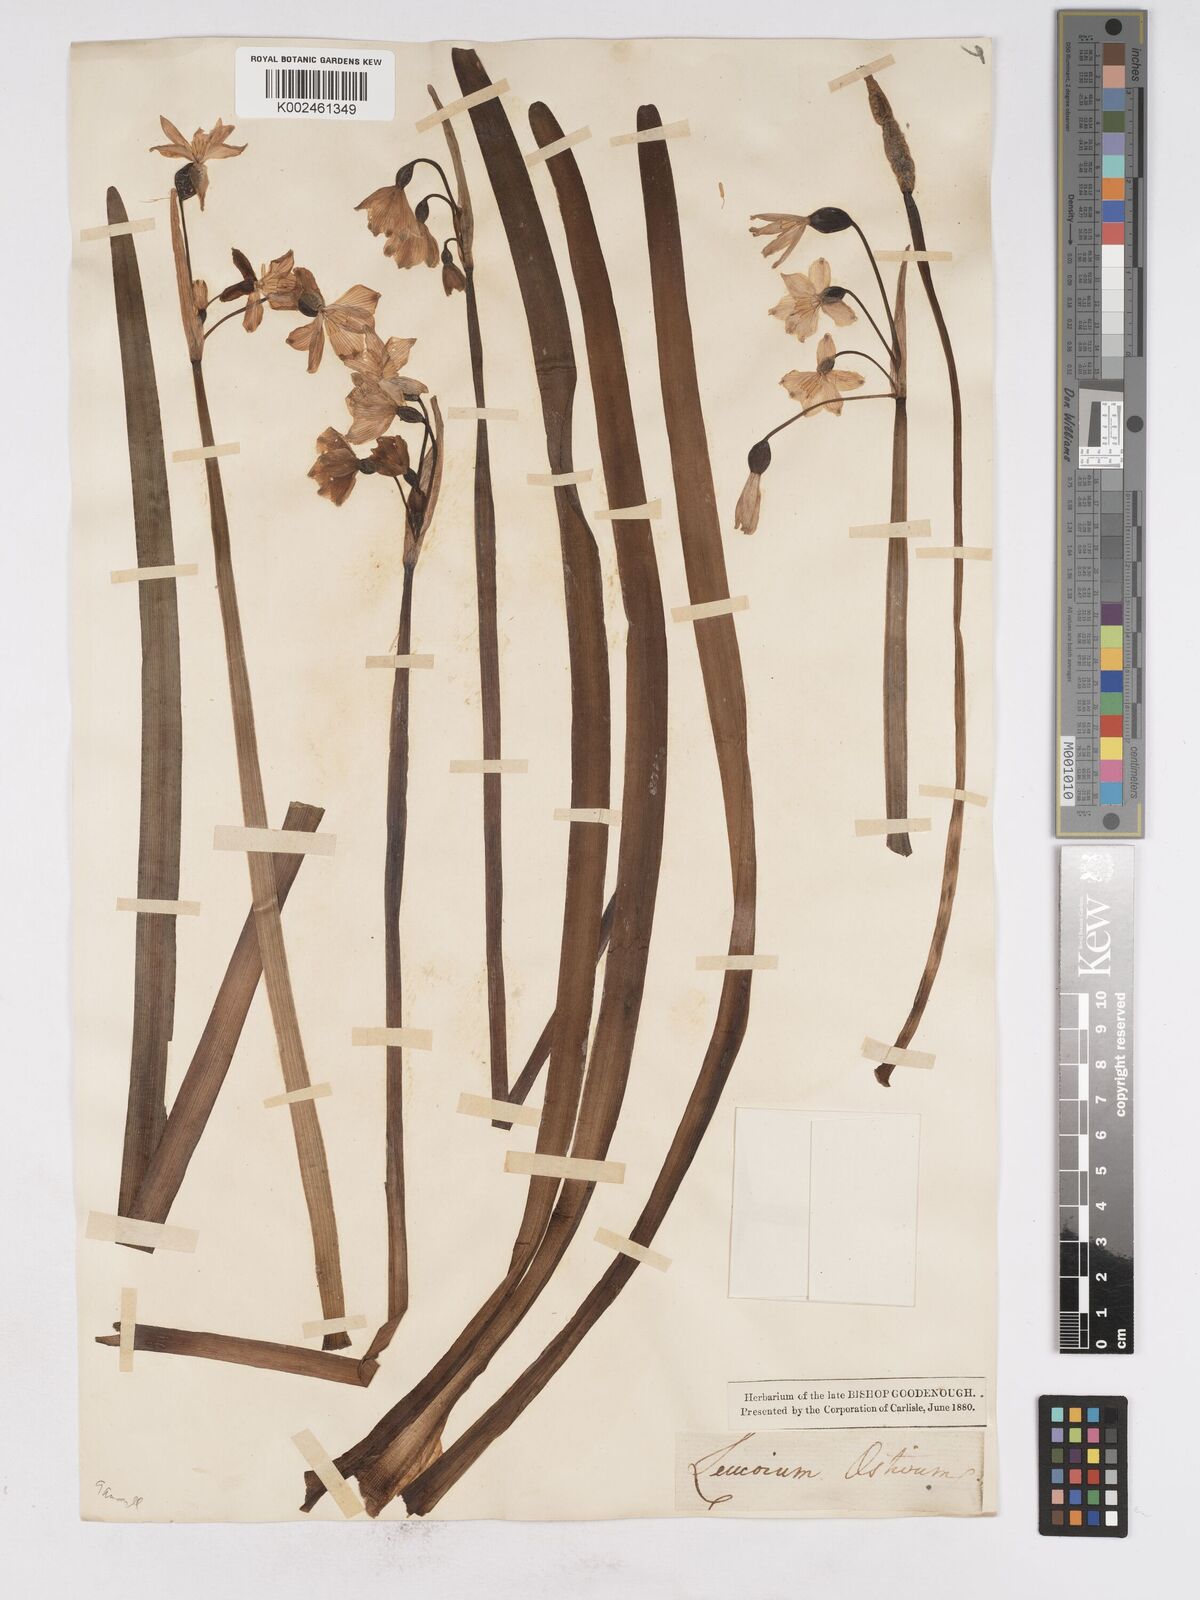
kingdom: Plantae
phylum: Tracheophyta
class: Liliopsida
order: Asparagales
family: Amaryllidaceae
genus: Leucojum
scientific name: Leucojum aestivum
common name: Summer snowflake
